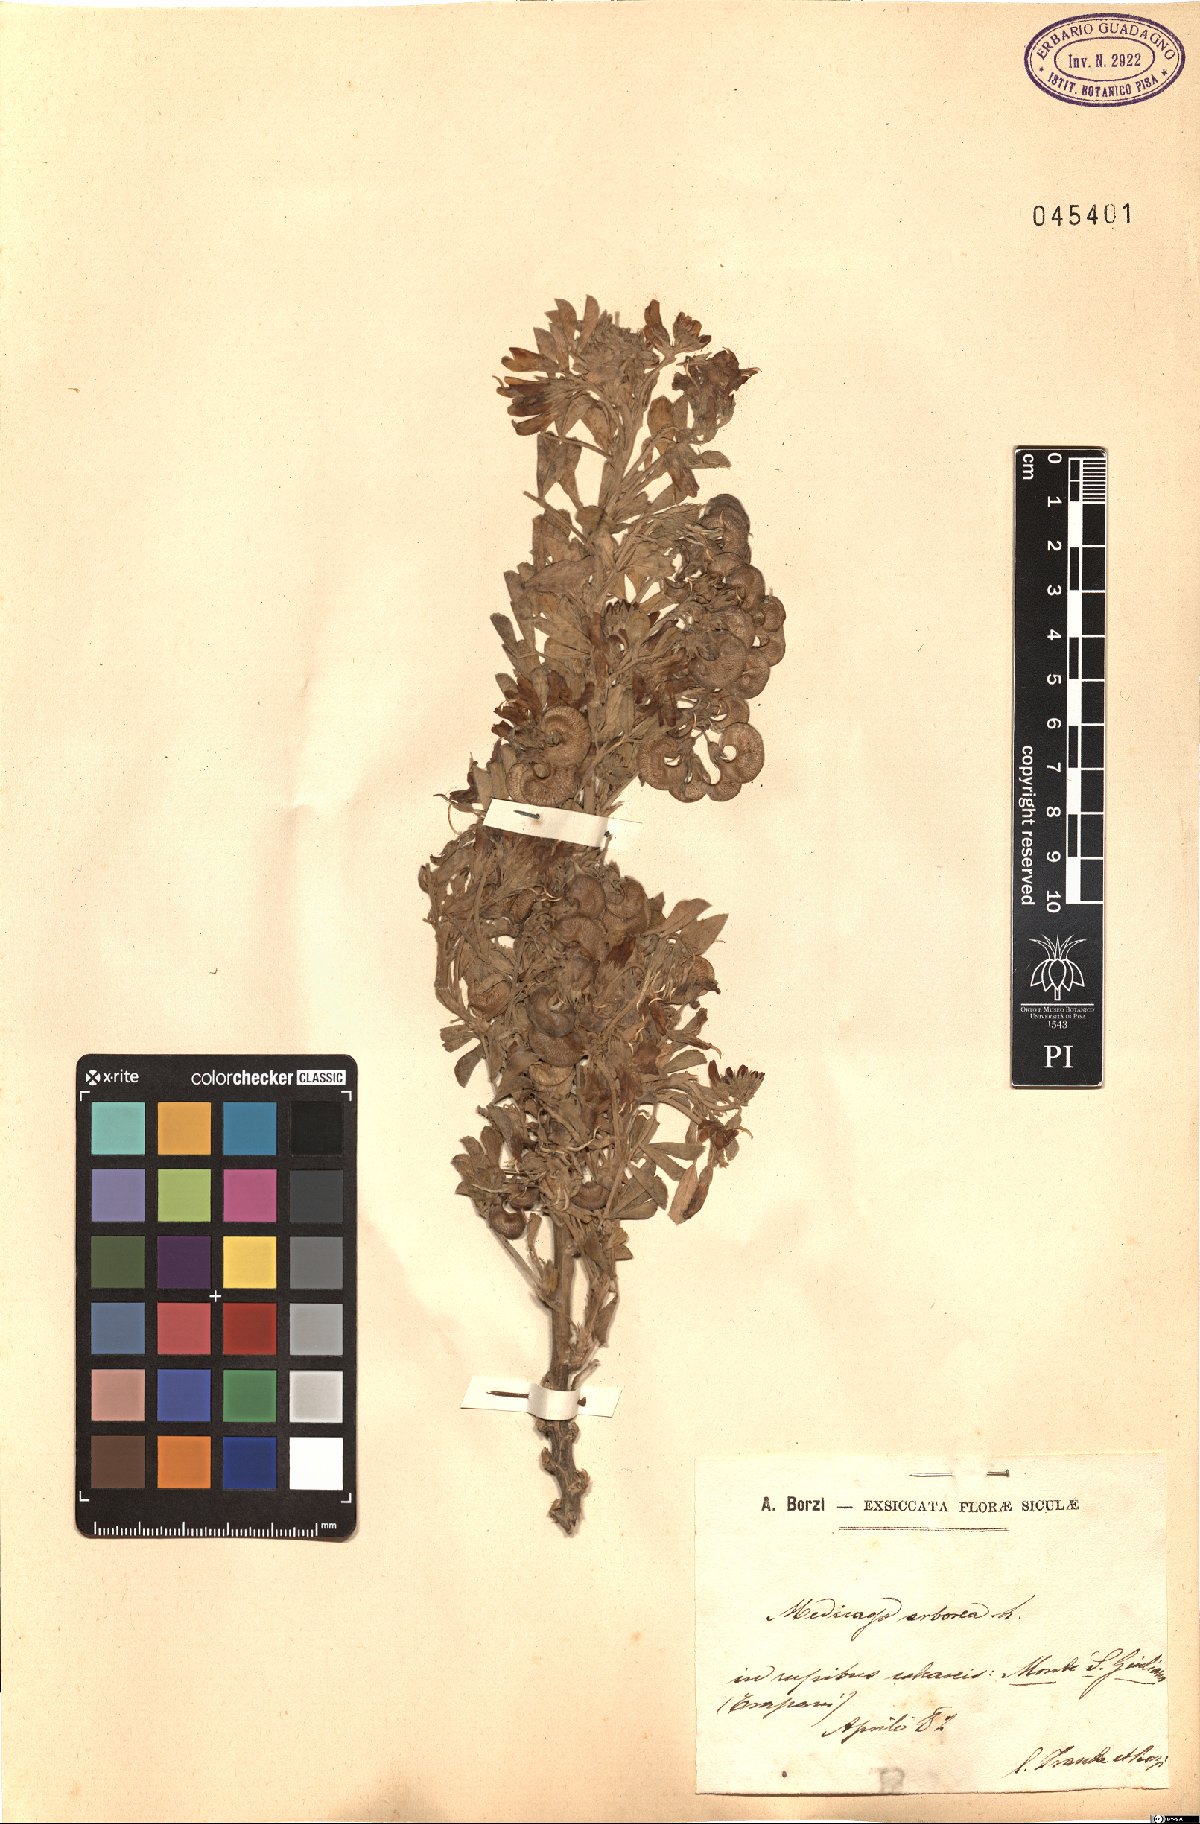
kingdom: Plantae
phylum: Tracheophyta
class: Magnoliopsida
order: Fabales
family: Fabaceae
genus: Medicago
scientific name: Medicago arborea
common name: Moon trefoil
